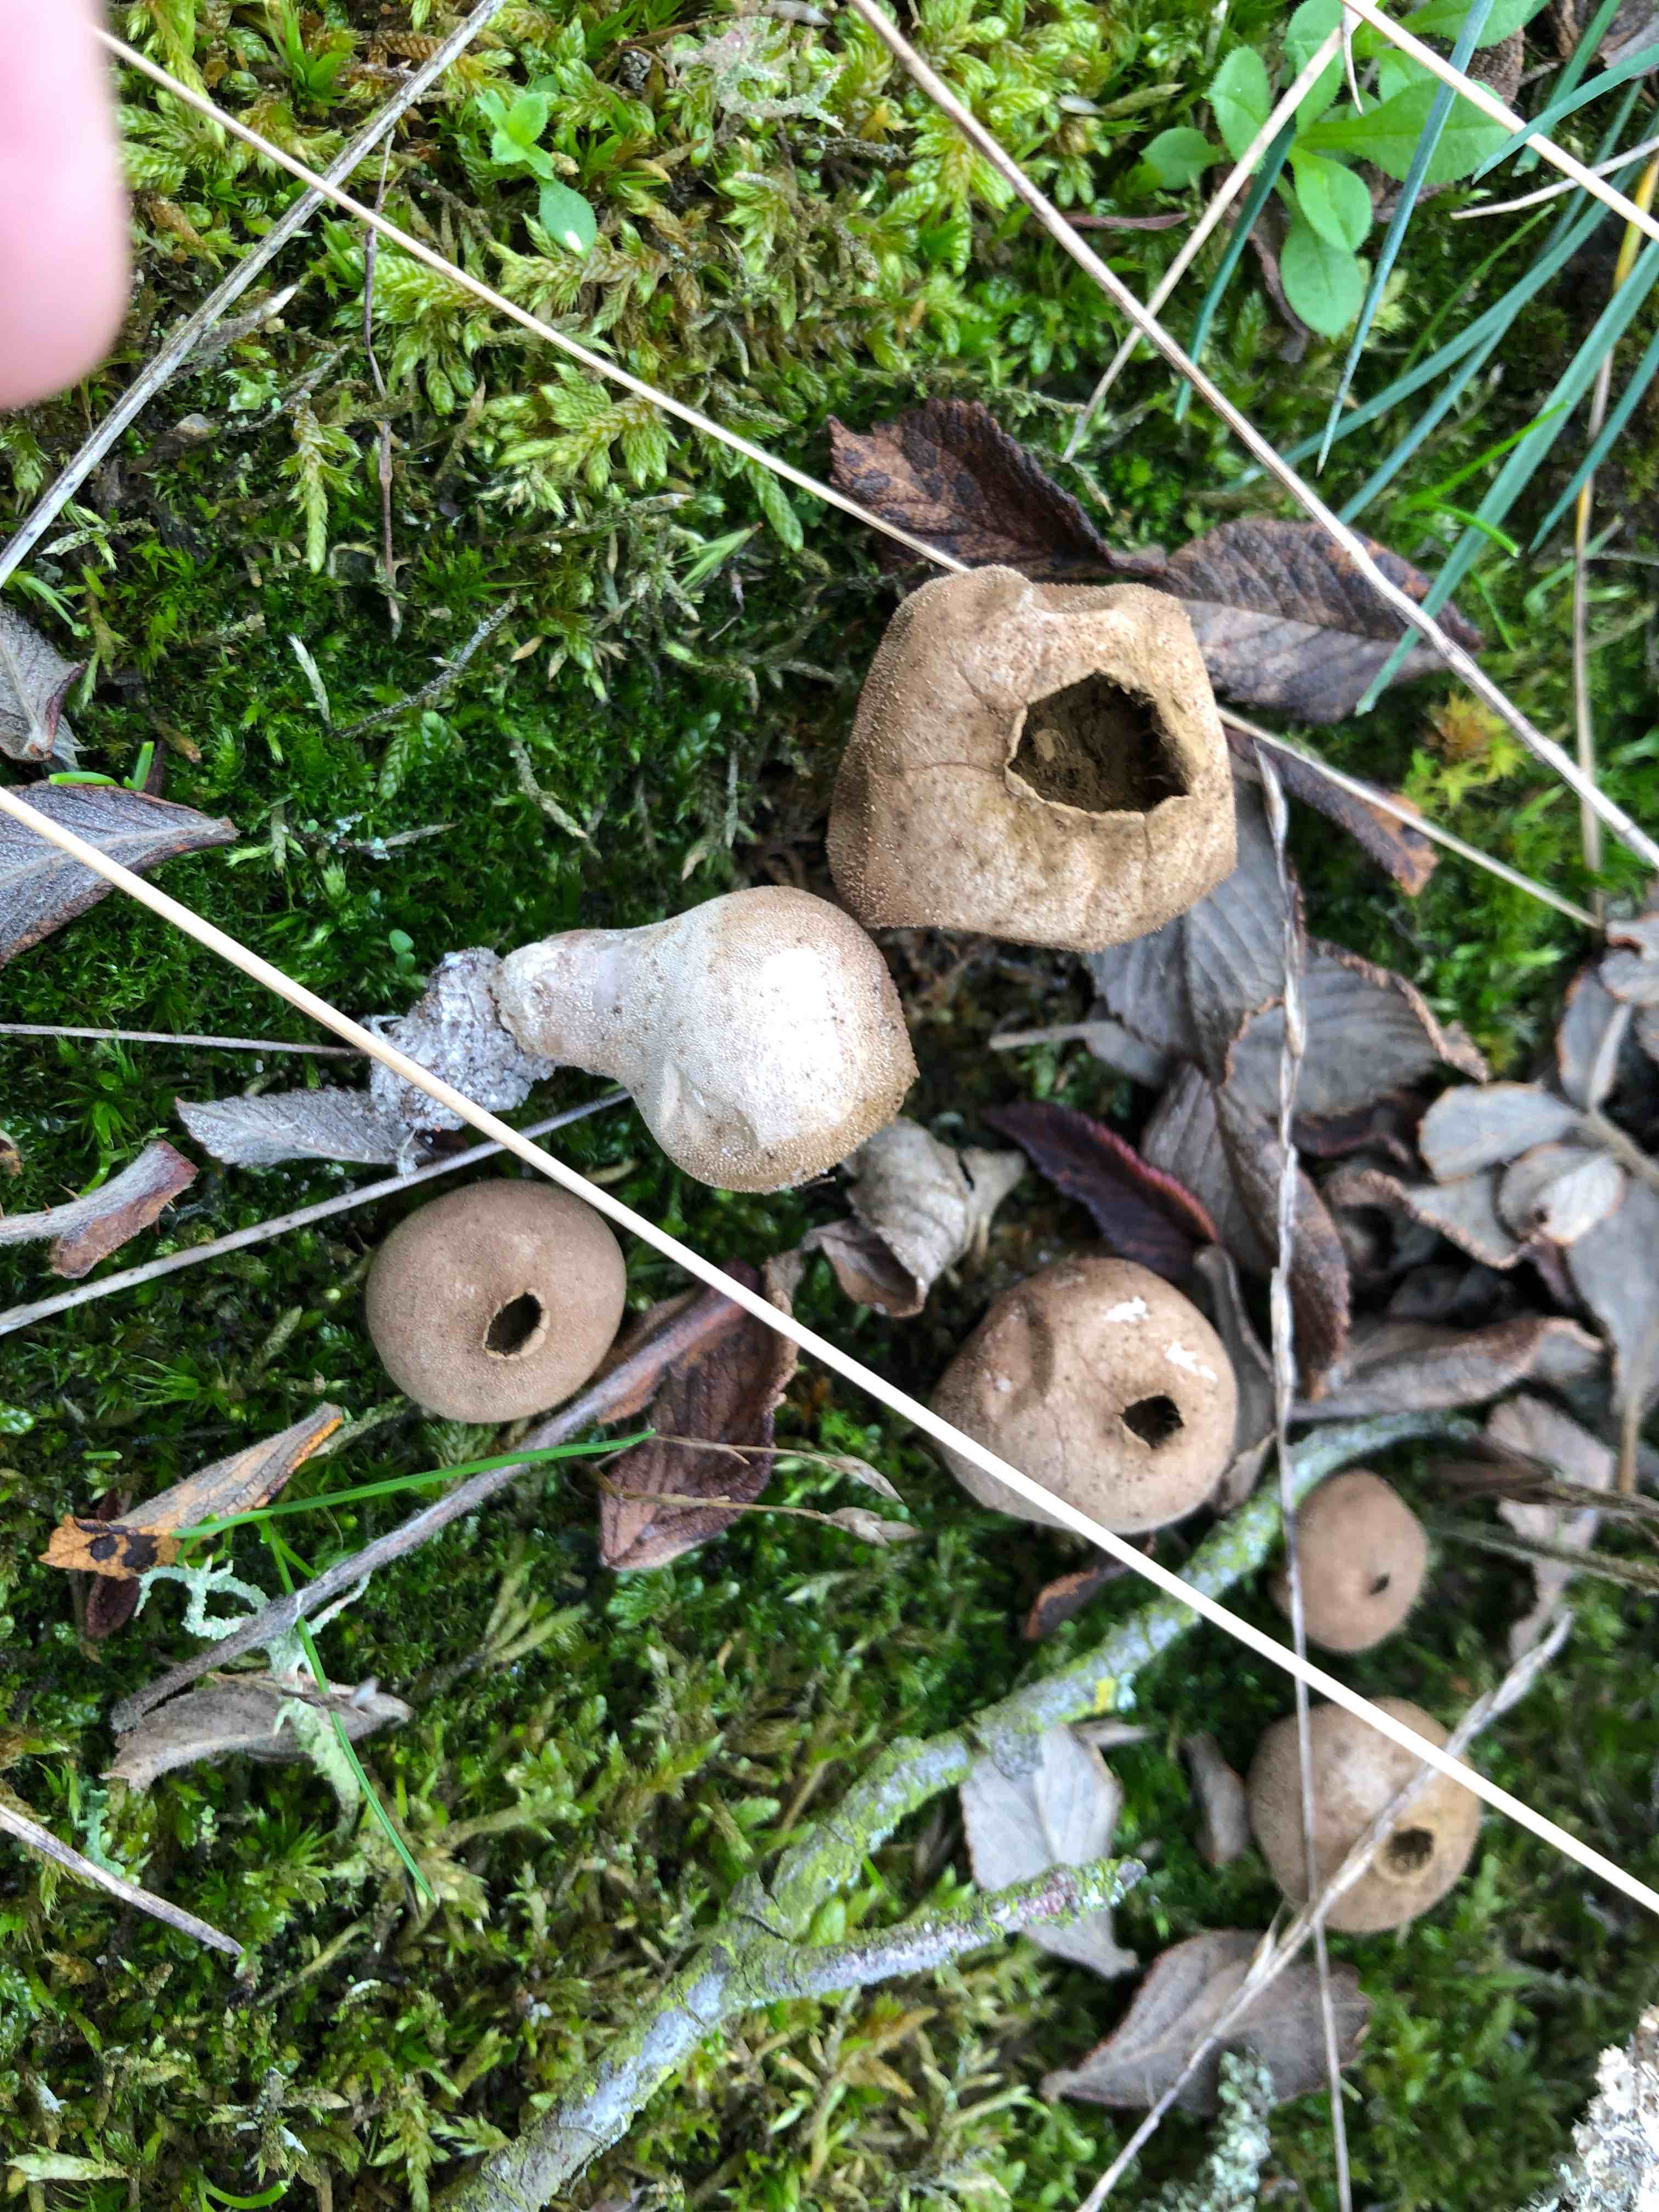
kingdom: Fungi
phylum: Basidiomycota
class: Agaricomycetes
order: Agaricales
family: Lycoperdaceae
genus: Lycoperdon
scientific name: Lycoperdon lividum
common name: mark-støvbold
